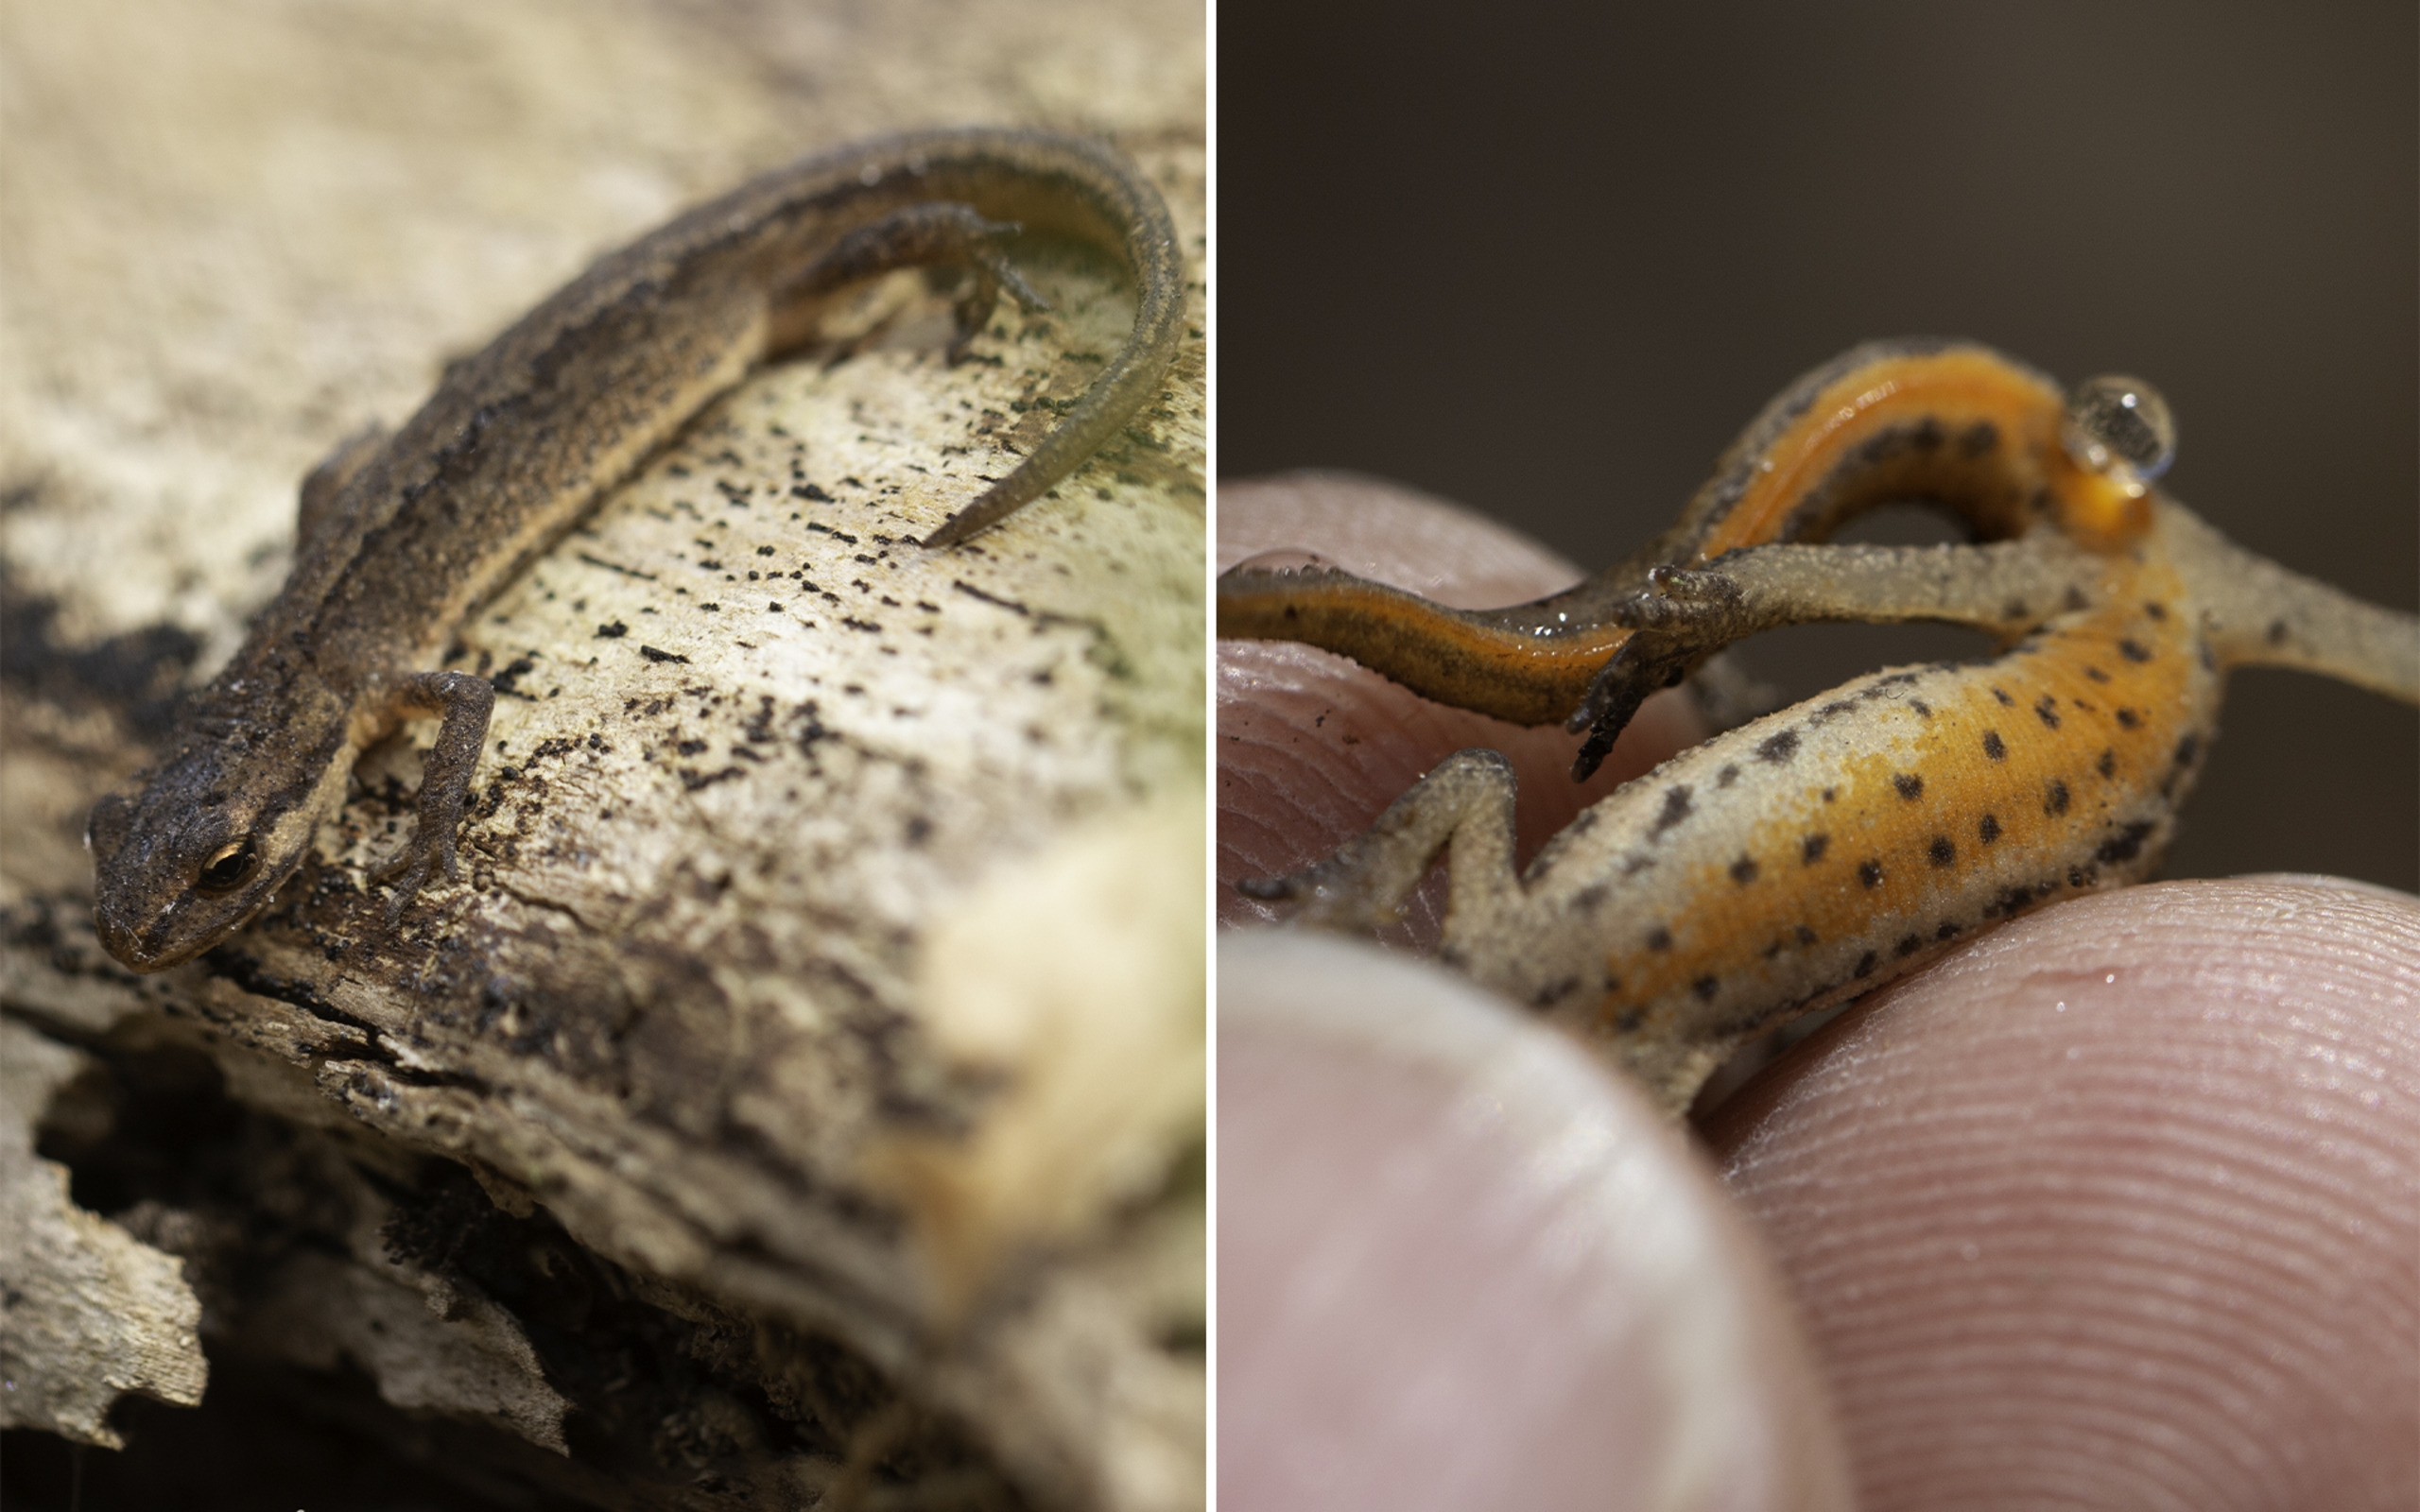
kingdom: Animalia
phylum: Chordata
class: Amphibia
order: Caudata
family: Salamandridae
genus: Lissotriton
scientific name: Lissotriton vulgaris
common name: Lille vandsalamander
